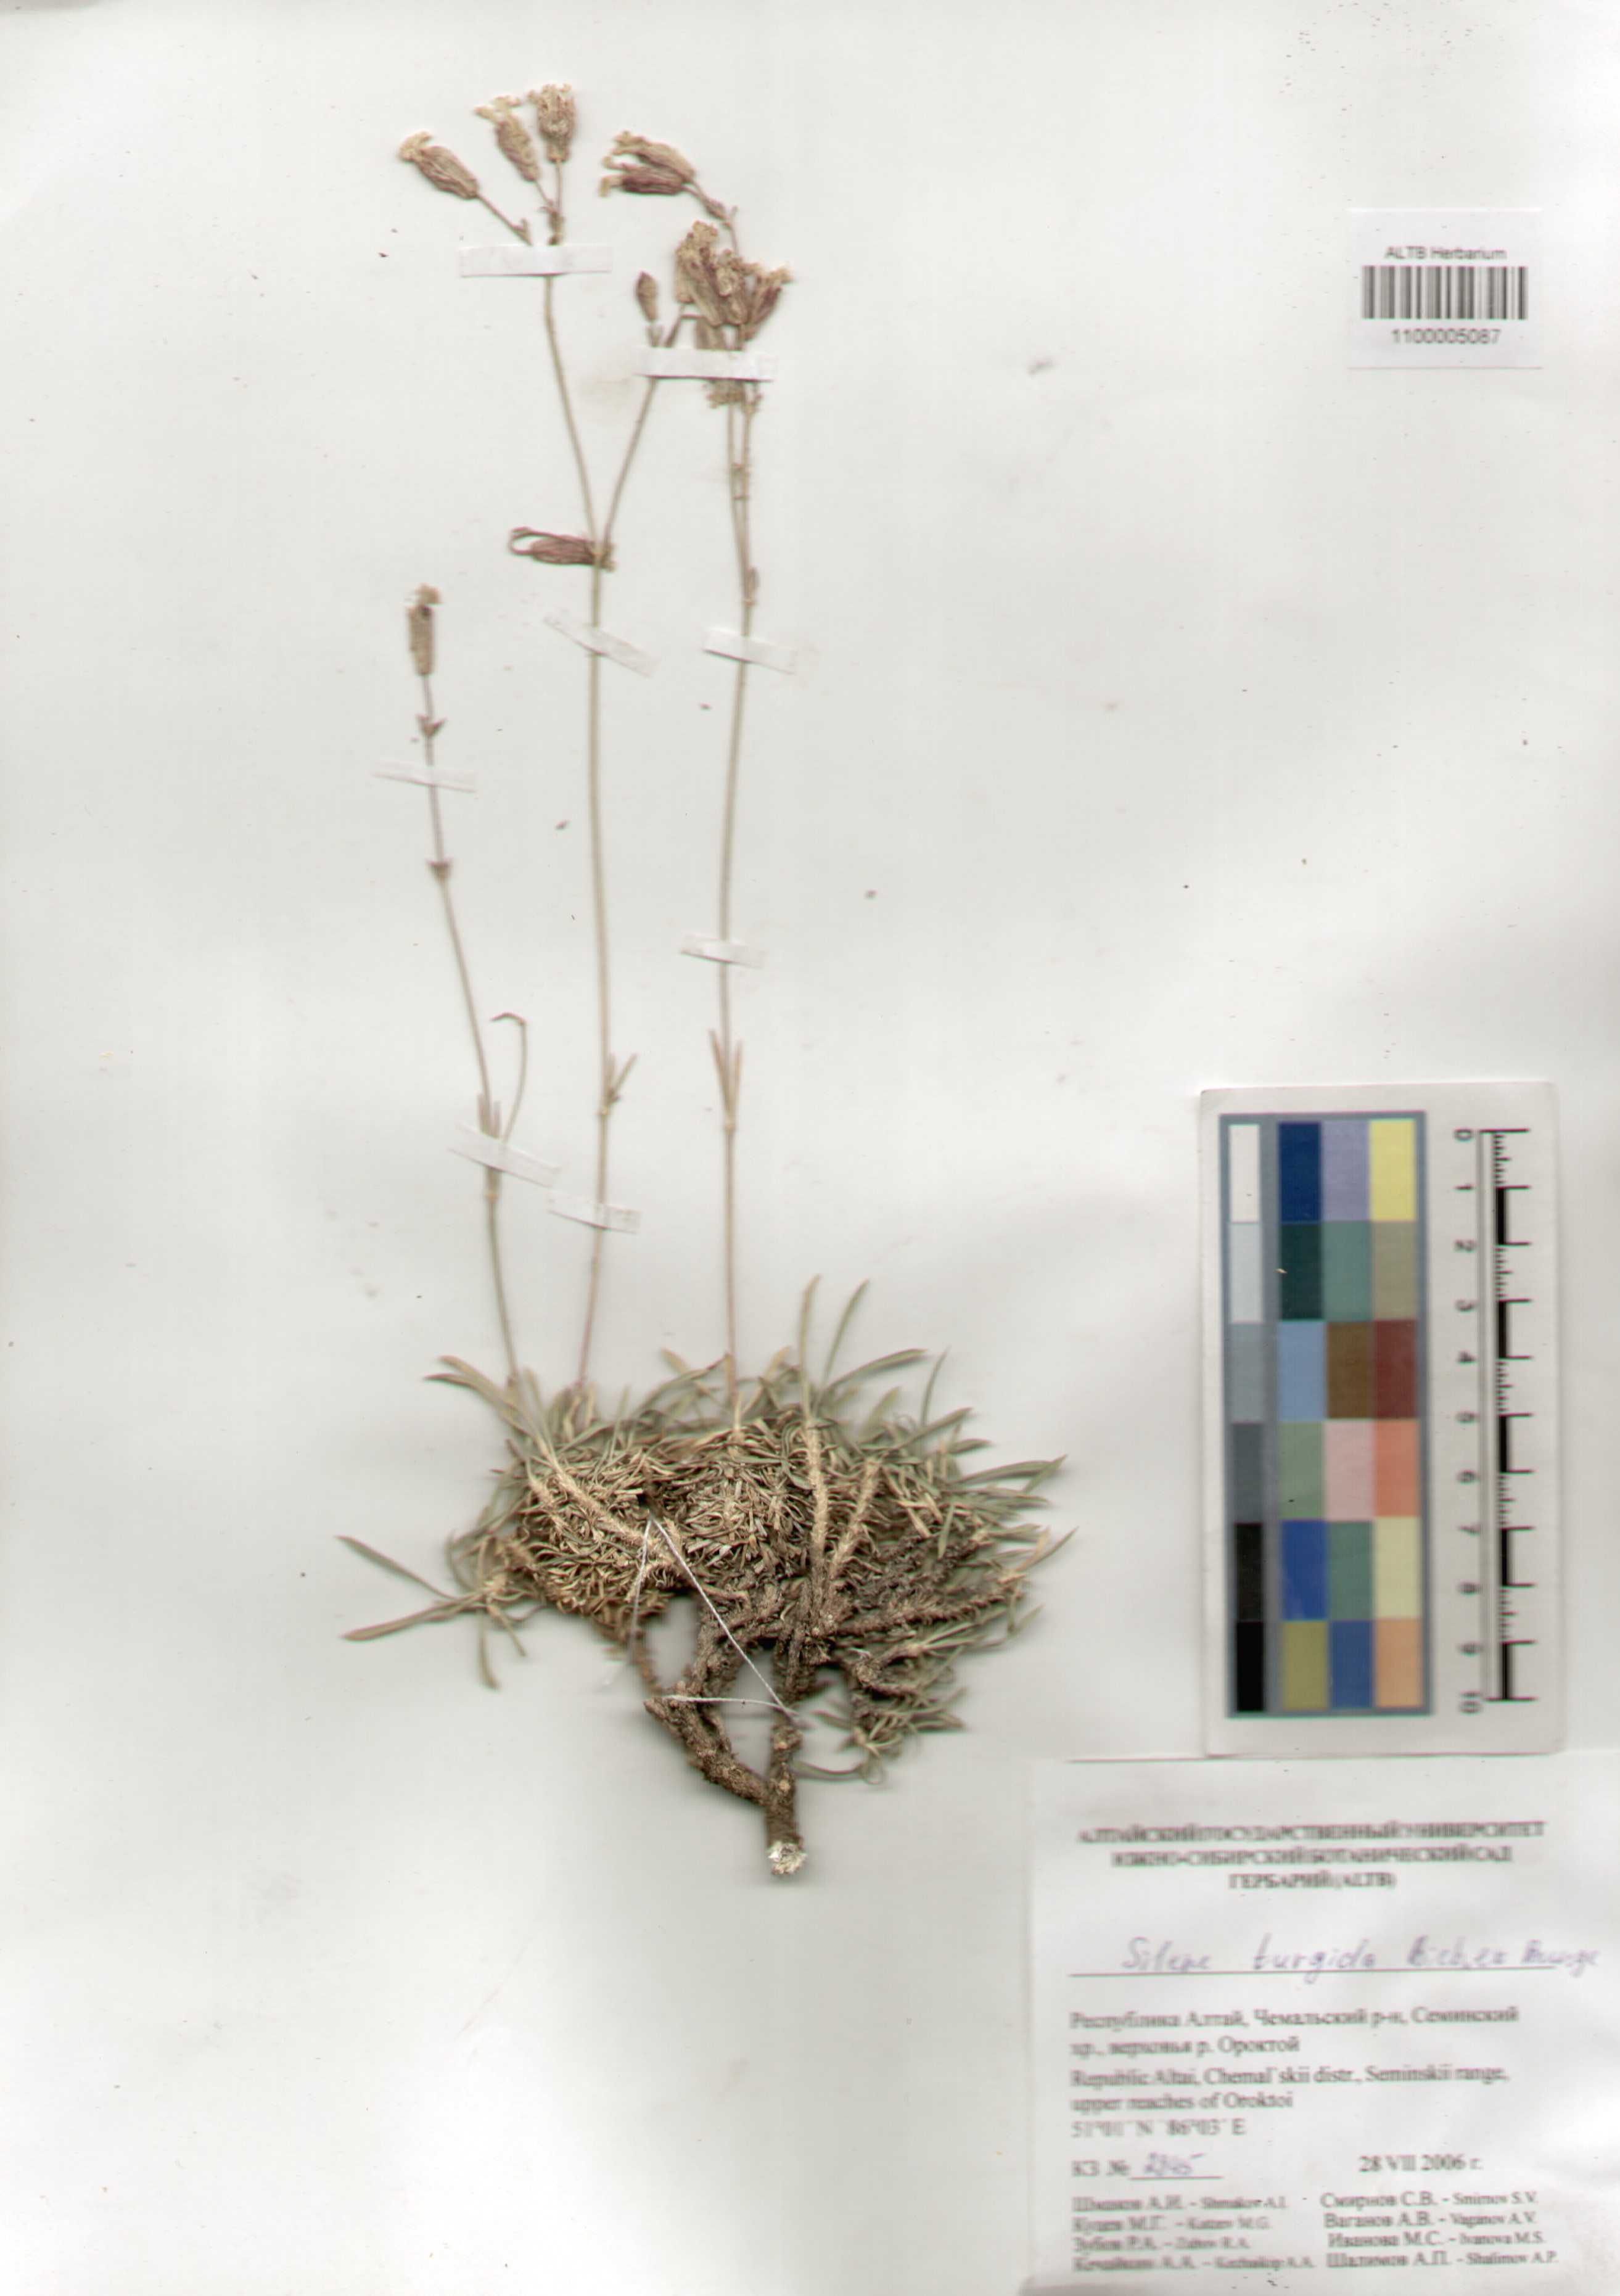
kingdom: Plantae
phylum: Tracheophyta
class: Magnoliopsida
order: Caryophyllales
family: Caryophyllaceae
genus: Silene
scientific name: Silene turgida
